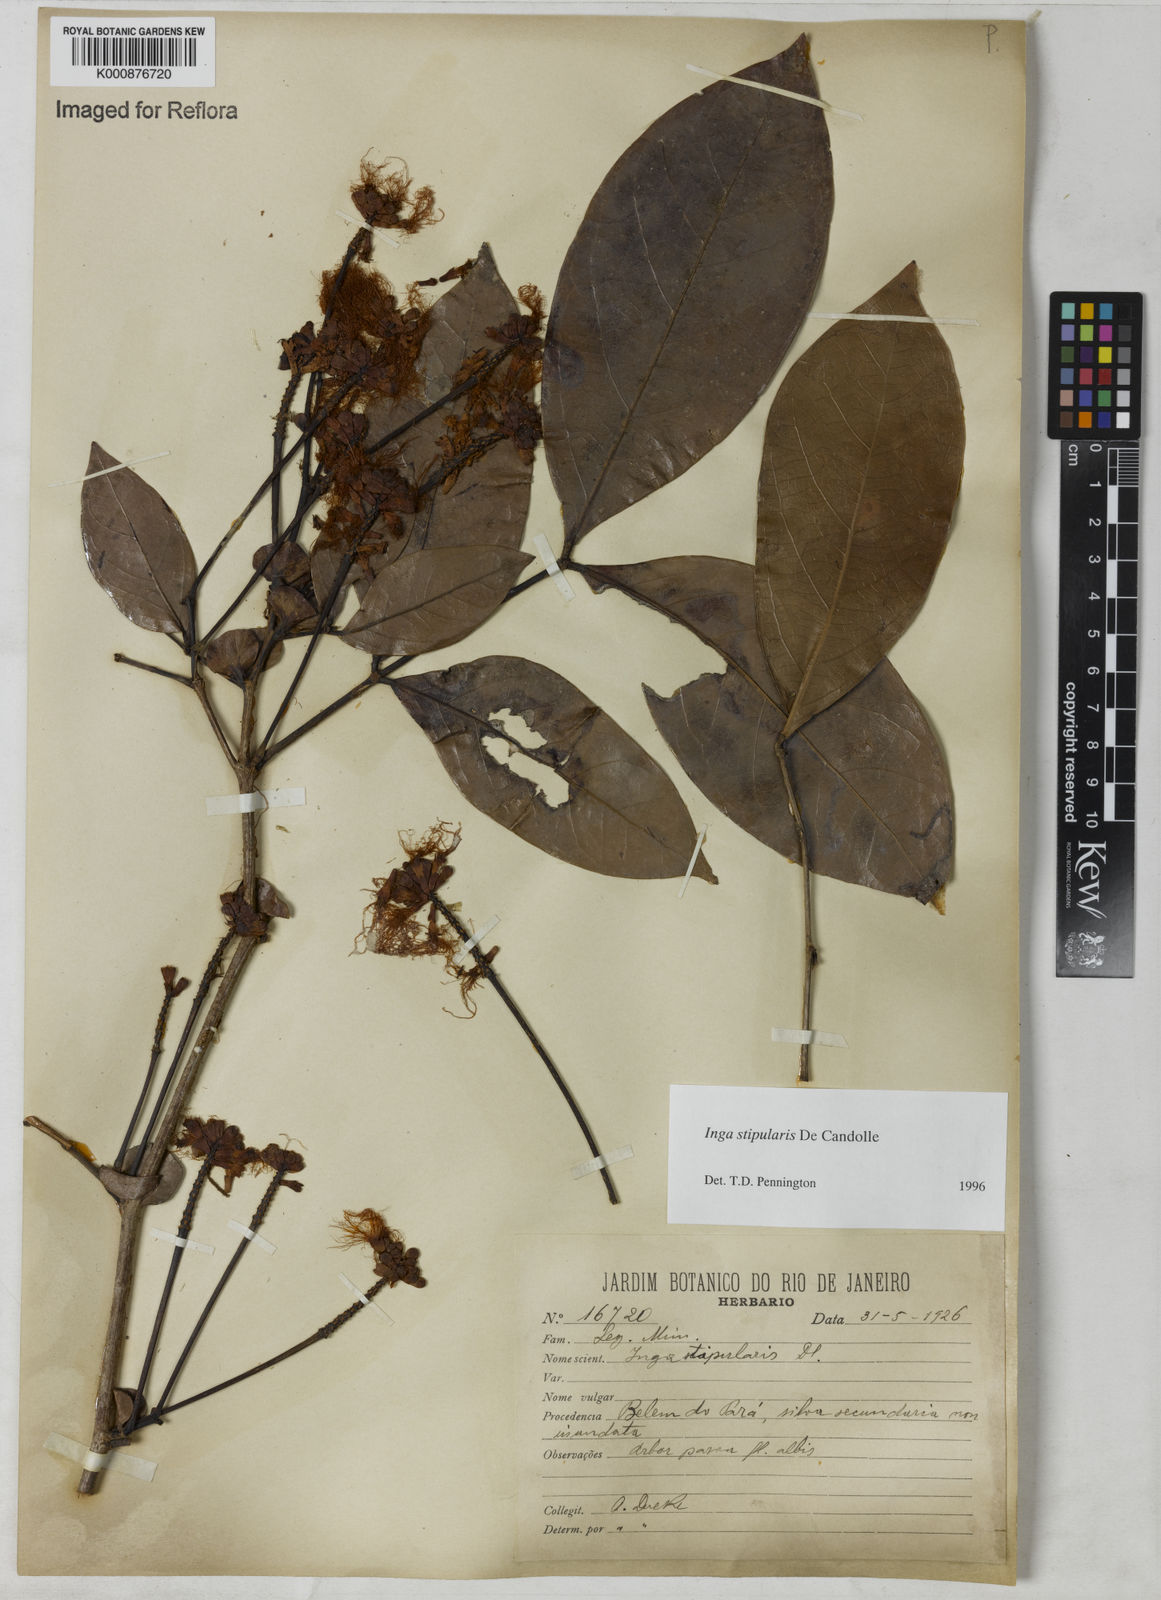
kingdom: Plantae
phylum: Tracheophyta
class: Magnoliopsida
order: Fabales
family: Fabaceae
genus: Inga
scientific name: Inga stipularis
